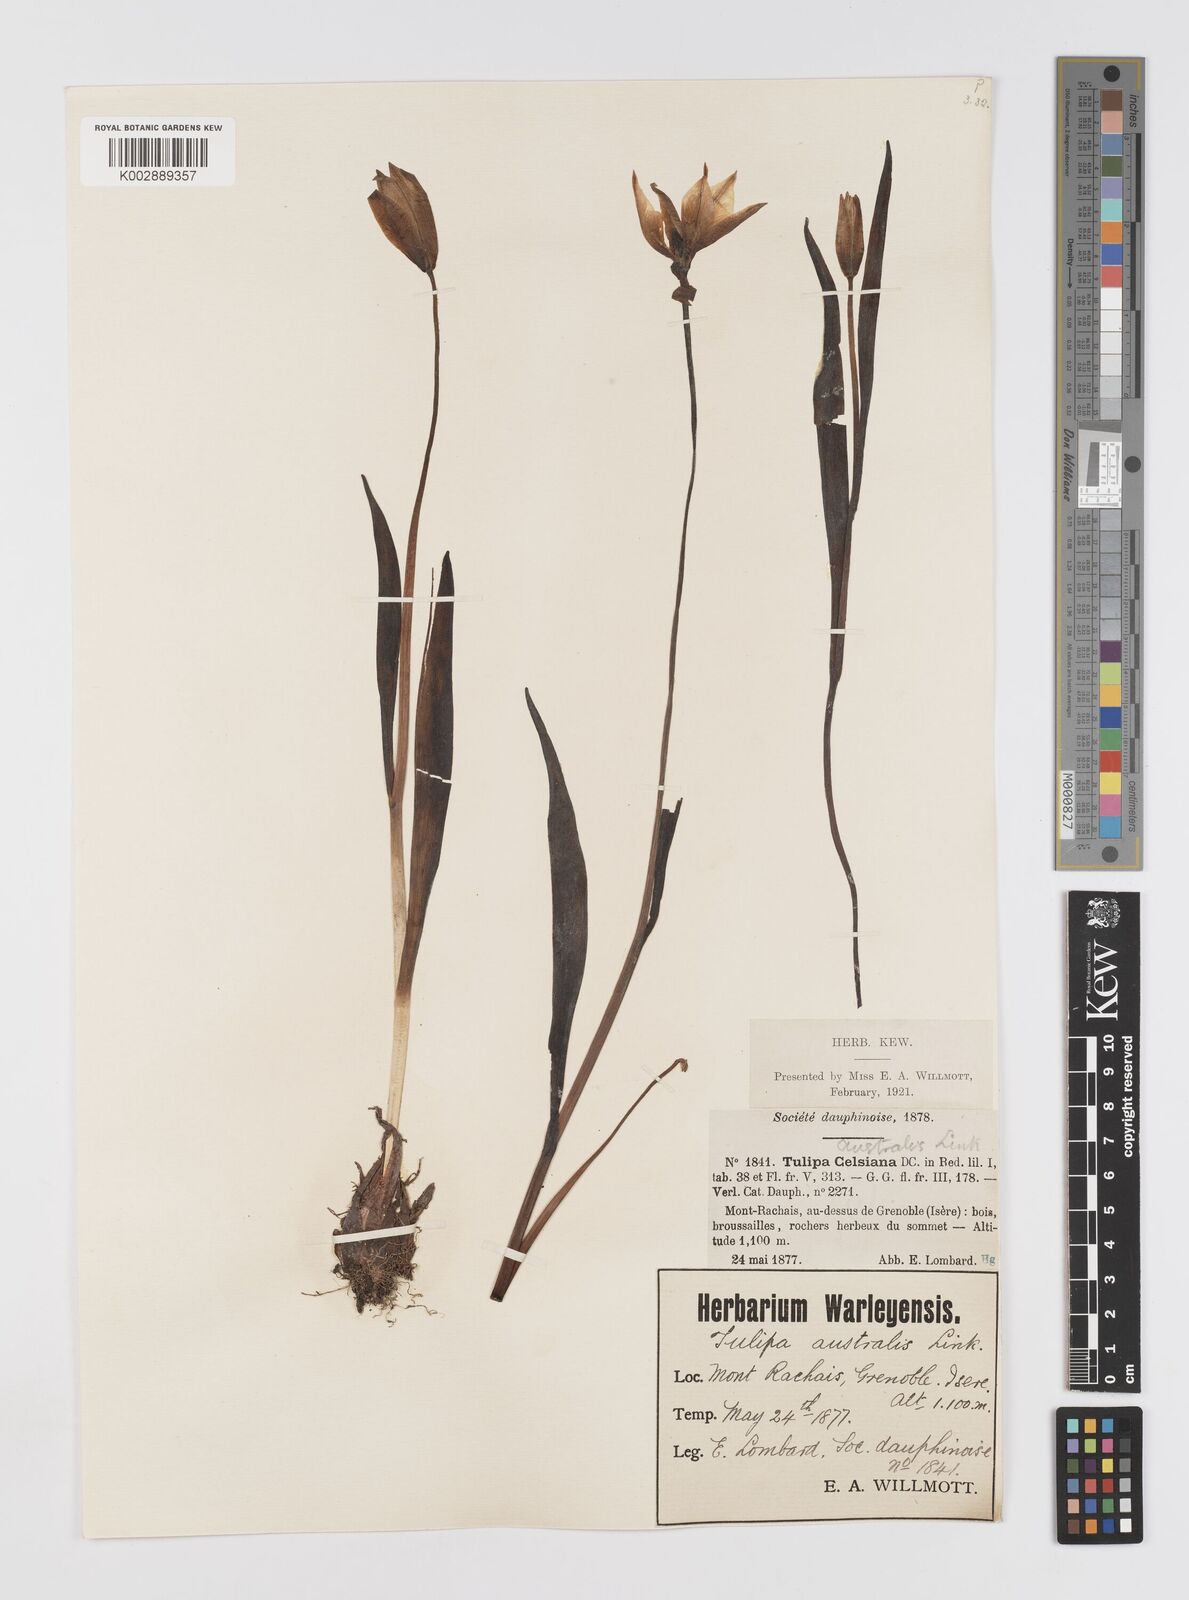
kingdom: Plantae
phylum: Tracheophyta
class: Liliopsida
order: Liliales
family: Liliaceae
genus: Tulipa
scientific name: Tulipa sylvestris
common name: Wild tulip
